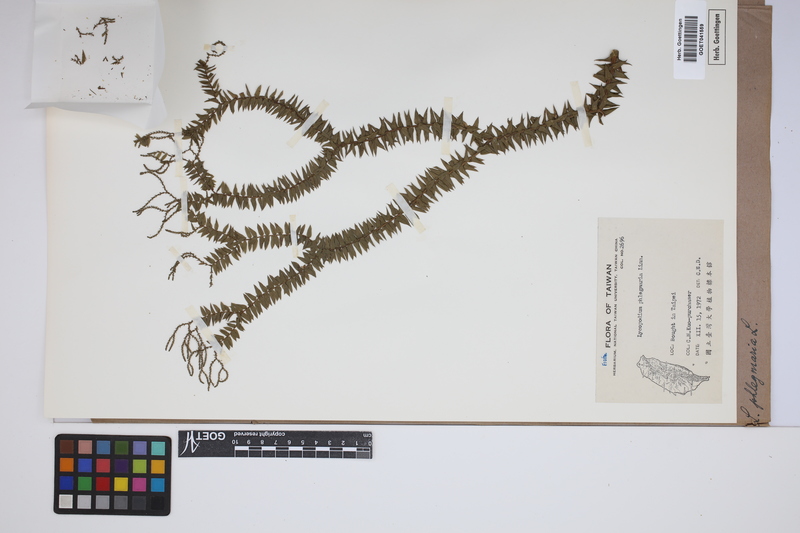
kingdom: Plantae
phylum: Tracheophyta
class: Lycopodiopsida
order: Lycopodiales
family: Lycopodiaceae
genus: Phlegmariurus
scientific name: Phlegmariurus phlegmaria
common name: Coarse tassel-fern
